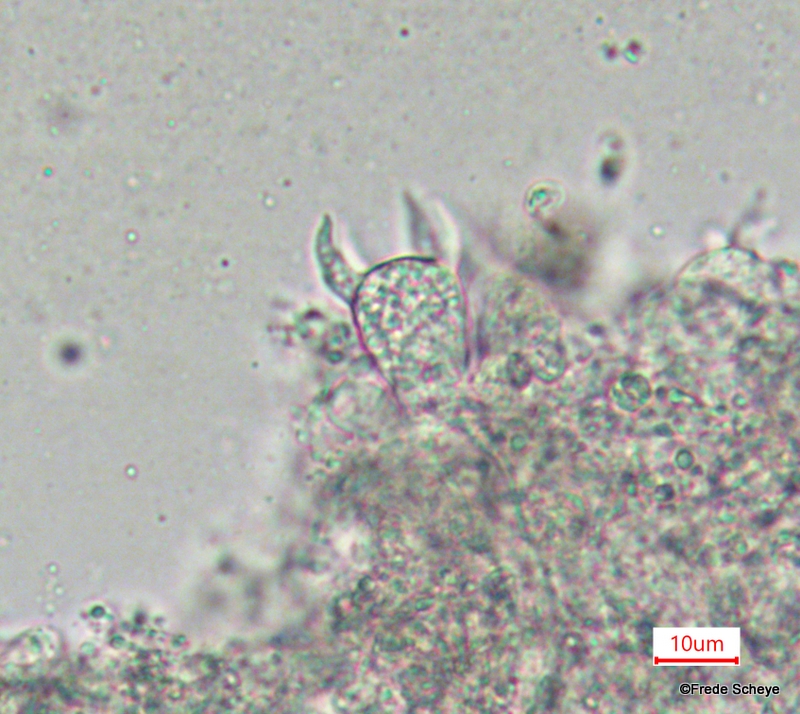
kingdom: Fungi
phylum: Basidiomycota
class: Agaricomycetes
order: Corticiales
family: Vuilleminiaceae
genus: Vuilleminia
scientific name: Vuilleminia comedens
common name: almindelig barksprænger
